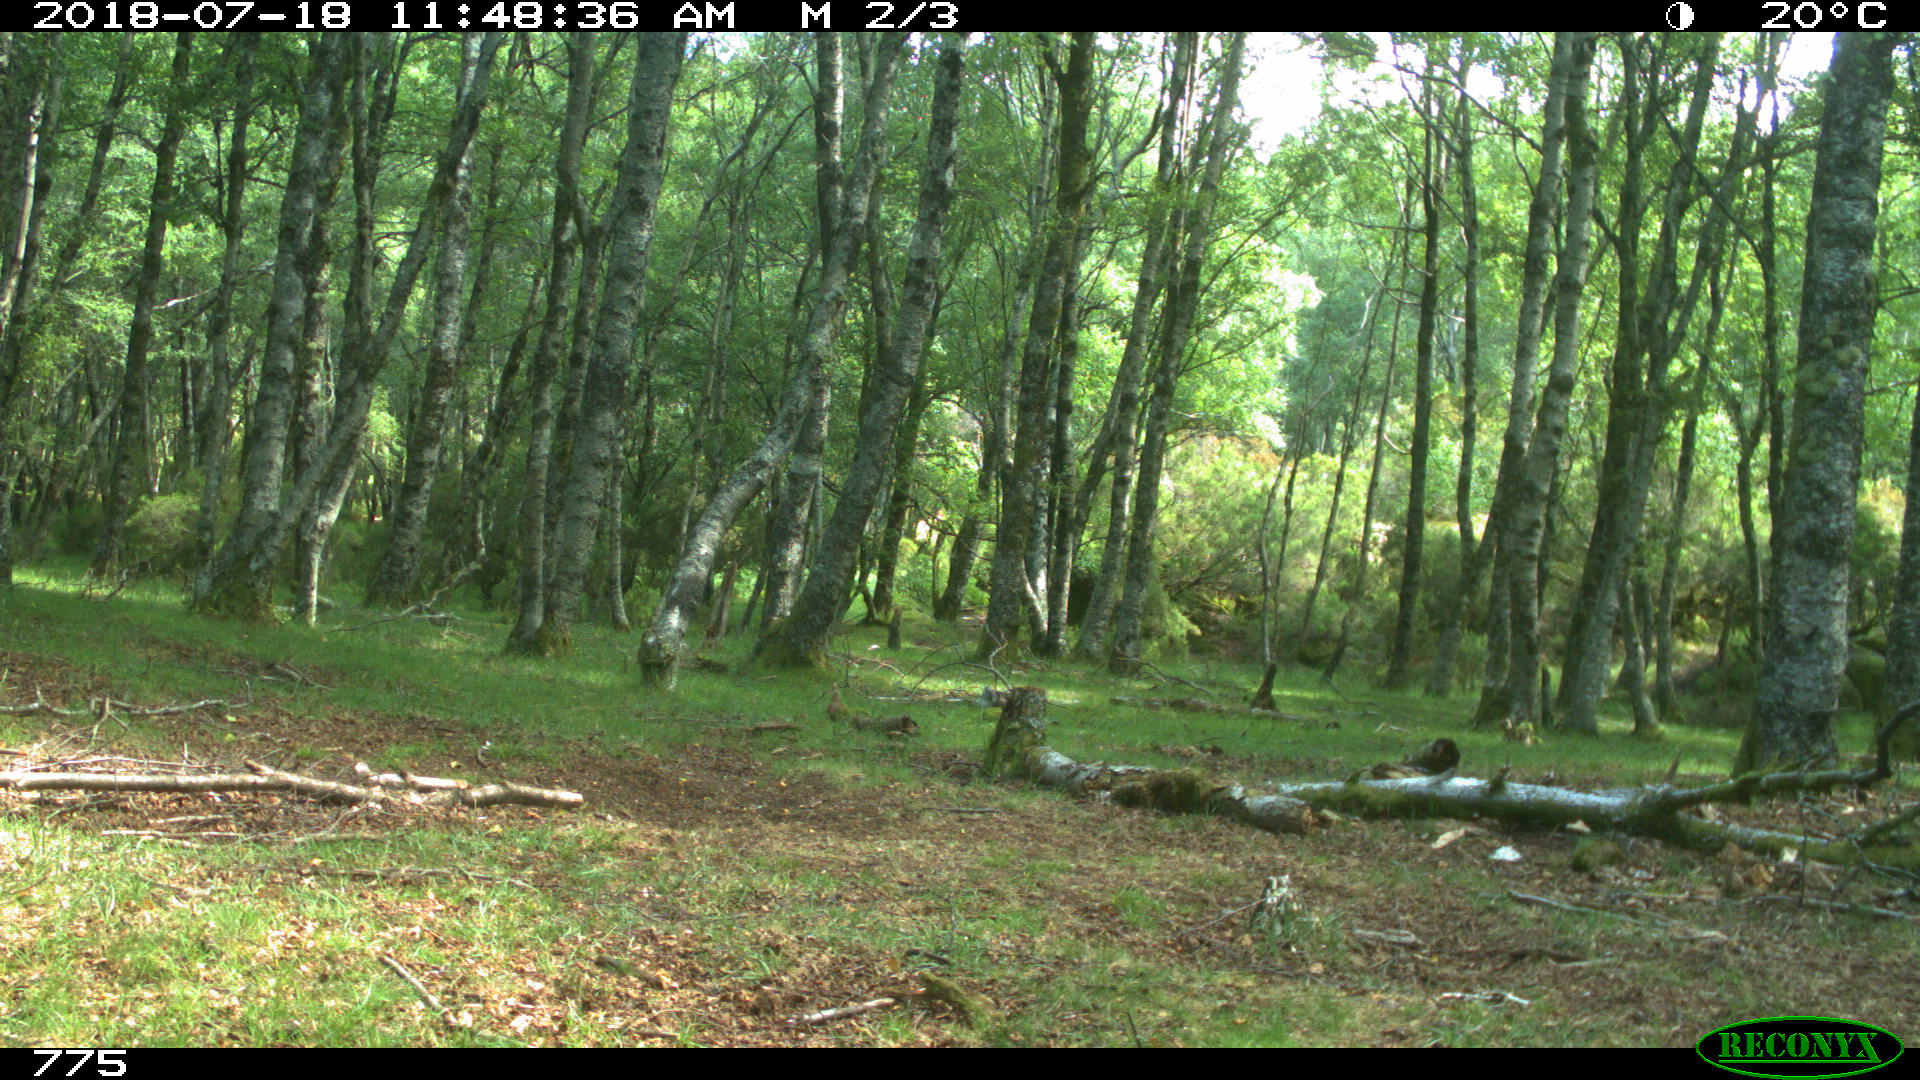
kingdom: Animalia
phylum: Chordata
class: Mammalia
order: Perissodactyla
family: Equidae
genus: Equus
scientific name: Equus caballus
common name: Horse
